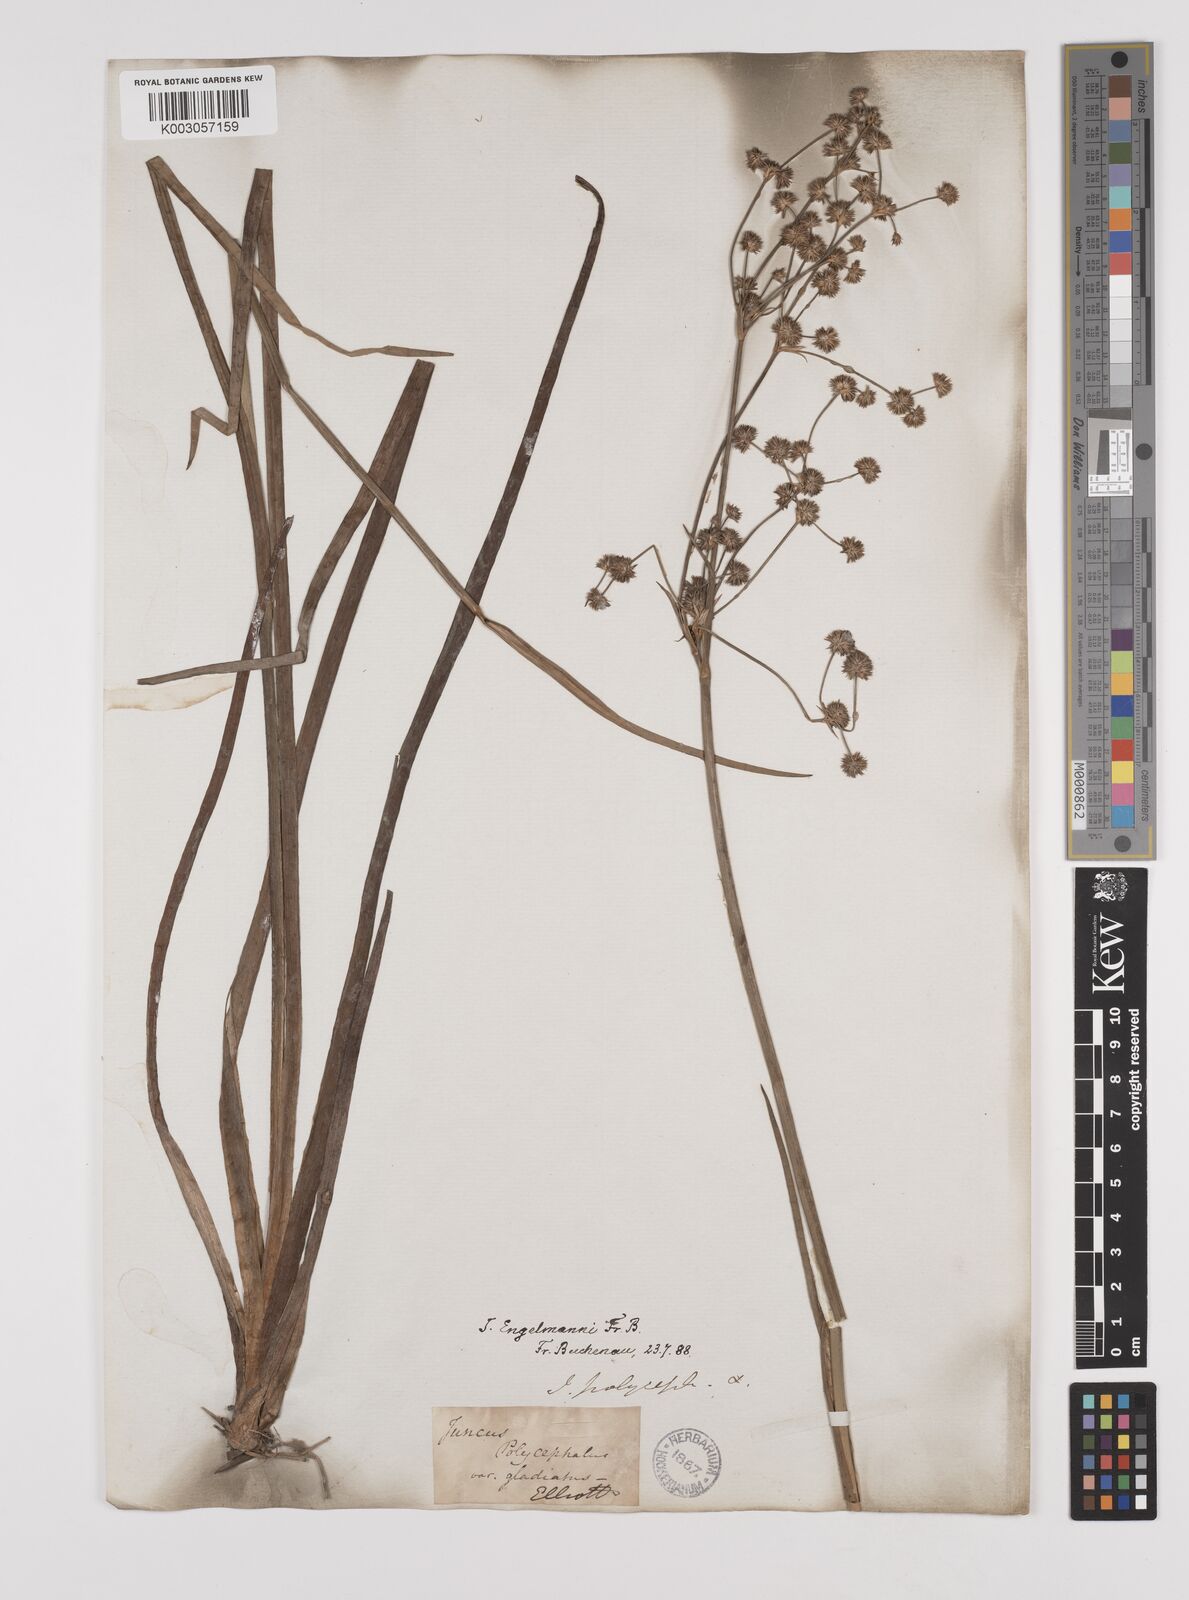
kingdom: Plantae
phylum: Tracheophyta
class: Liliopsida
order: Poales
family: Juncaceae
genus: Juncus
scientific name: Juncus articulatus
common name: Jointed rush
